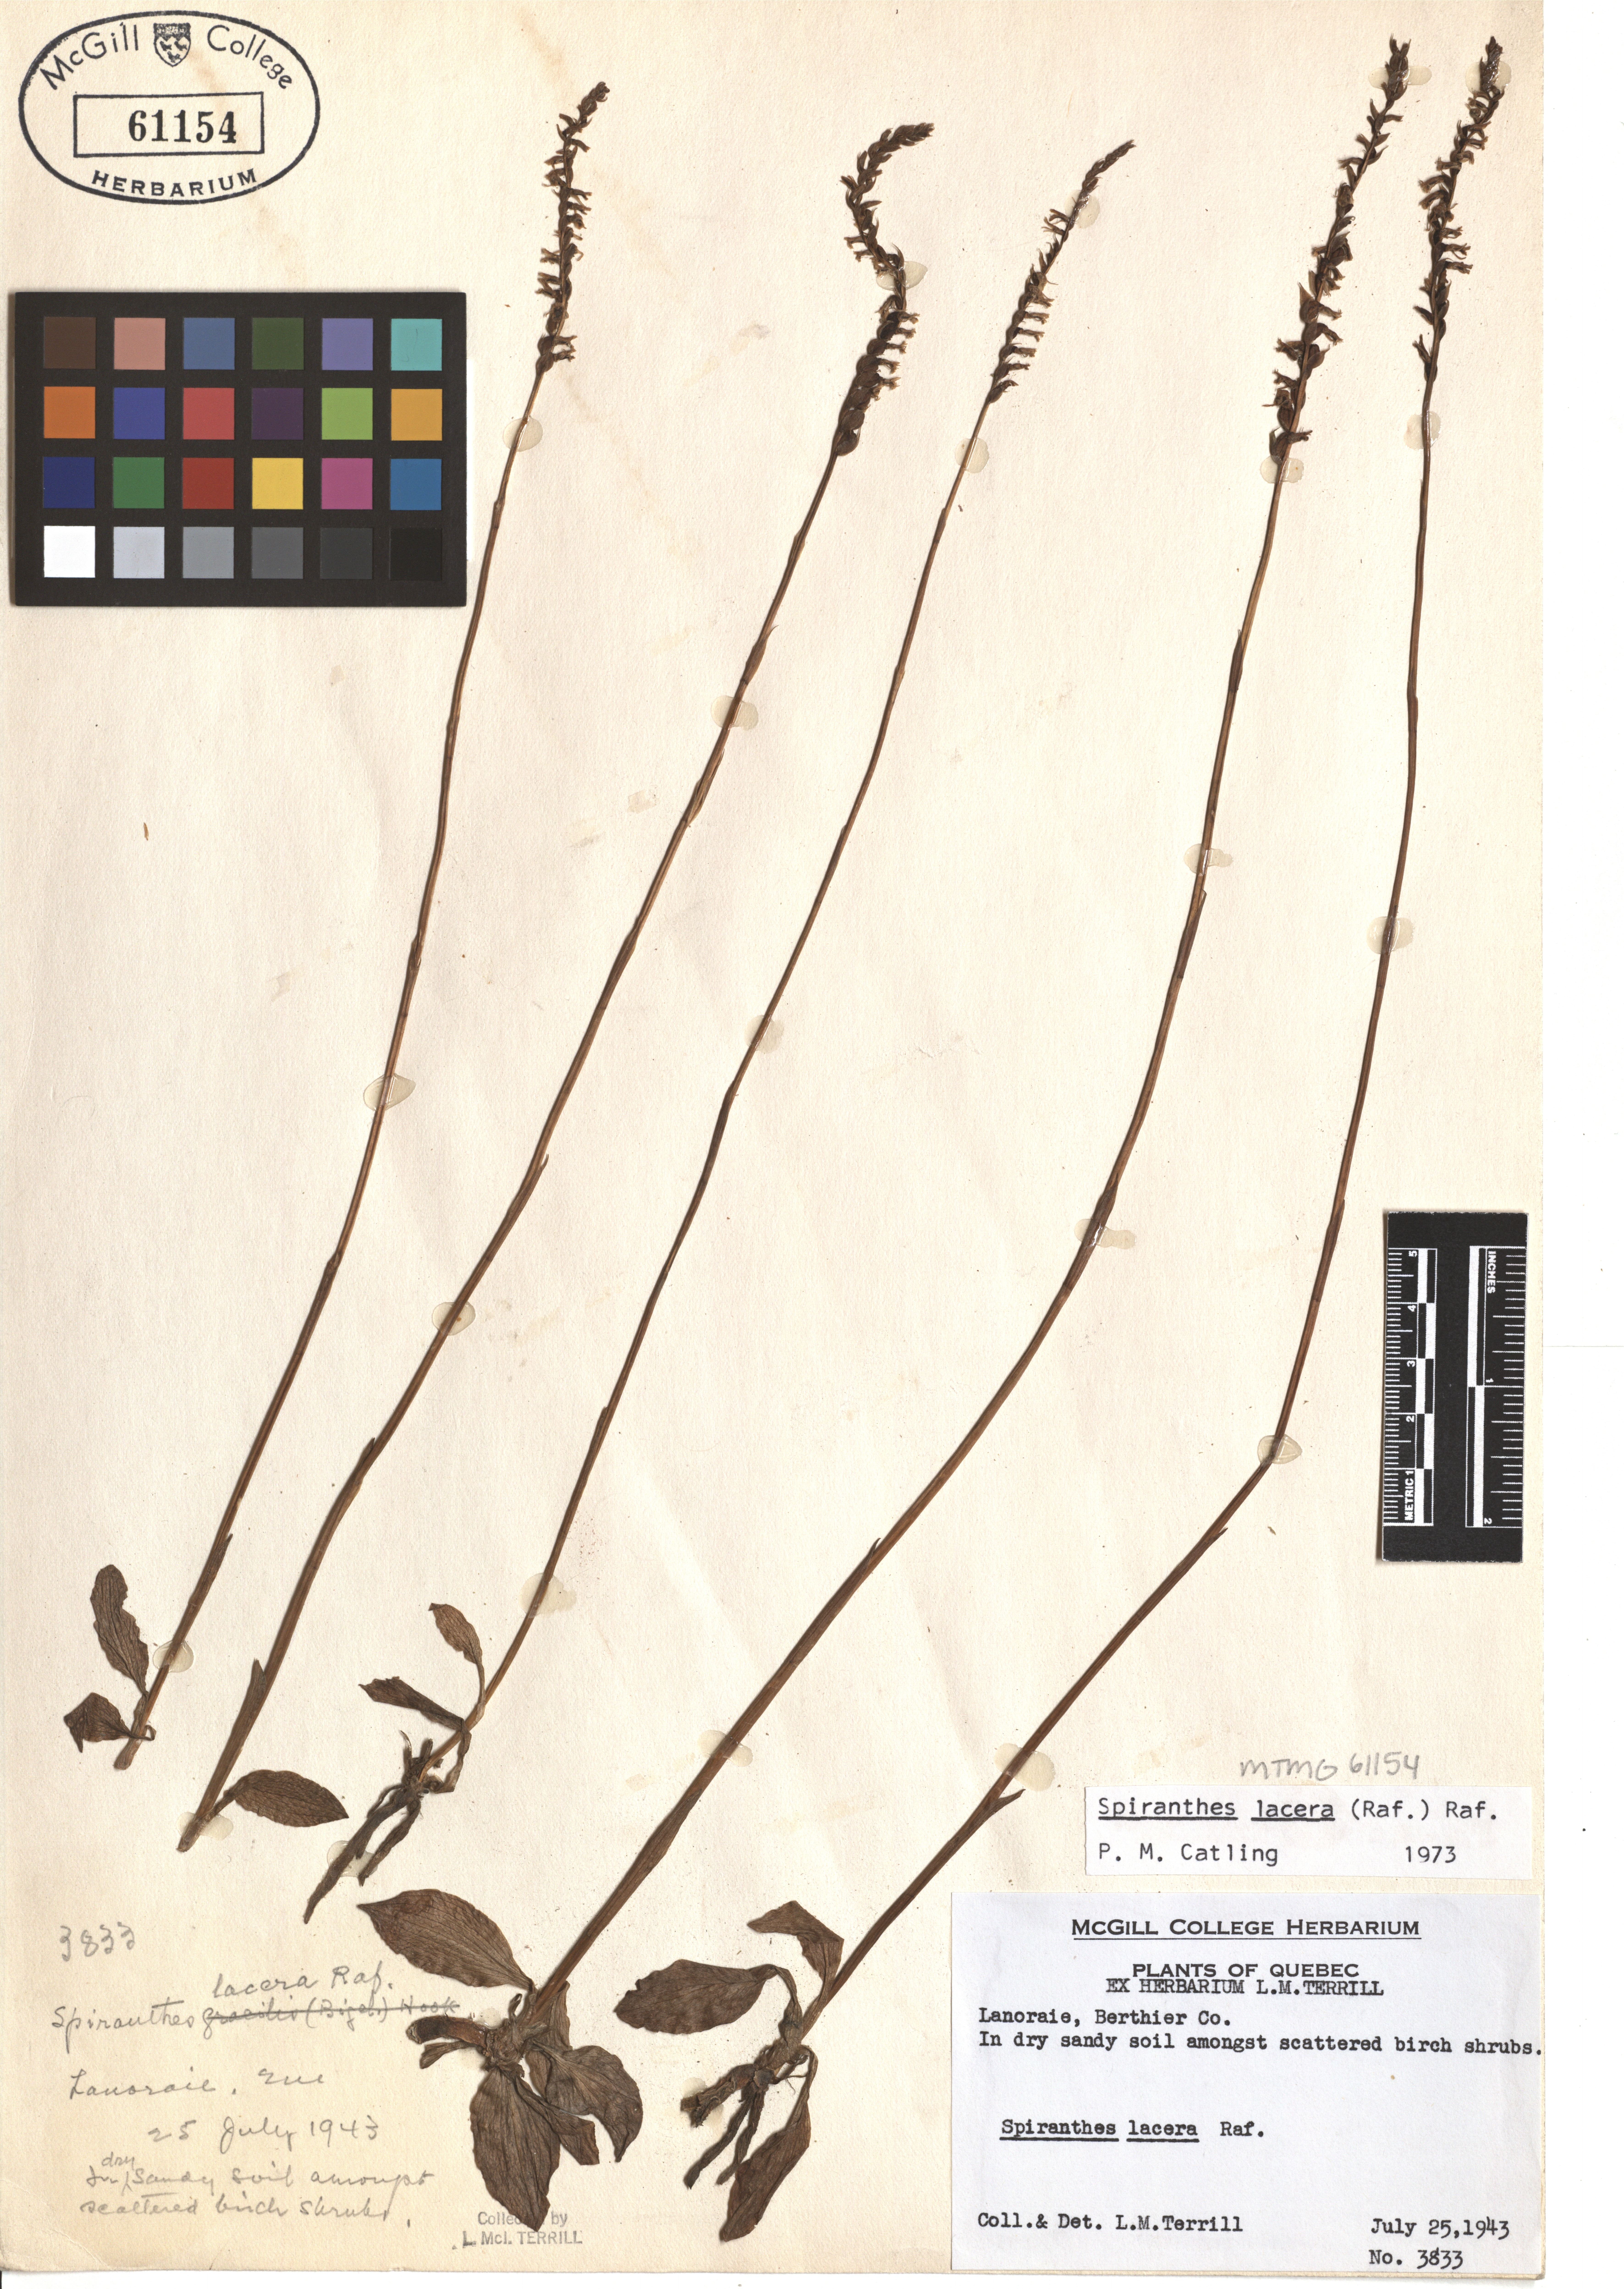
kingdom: Plantae
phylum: Tracheophyta
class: Liliopsida
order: Asparagales
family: Orchidaceae
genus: Spiranthes
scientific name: Spiranthes lacera
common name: Northern slender ladies'-tresses
